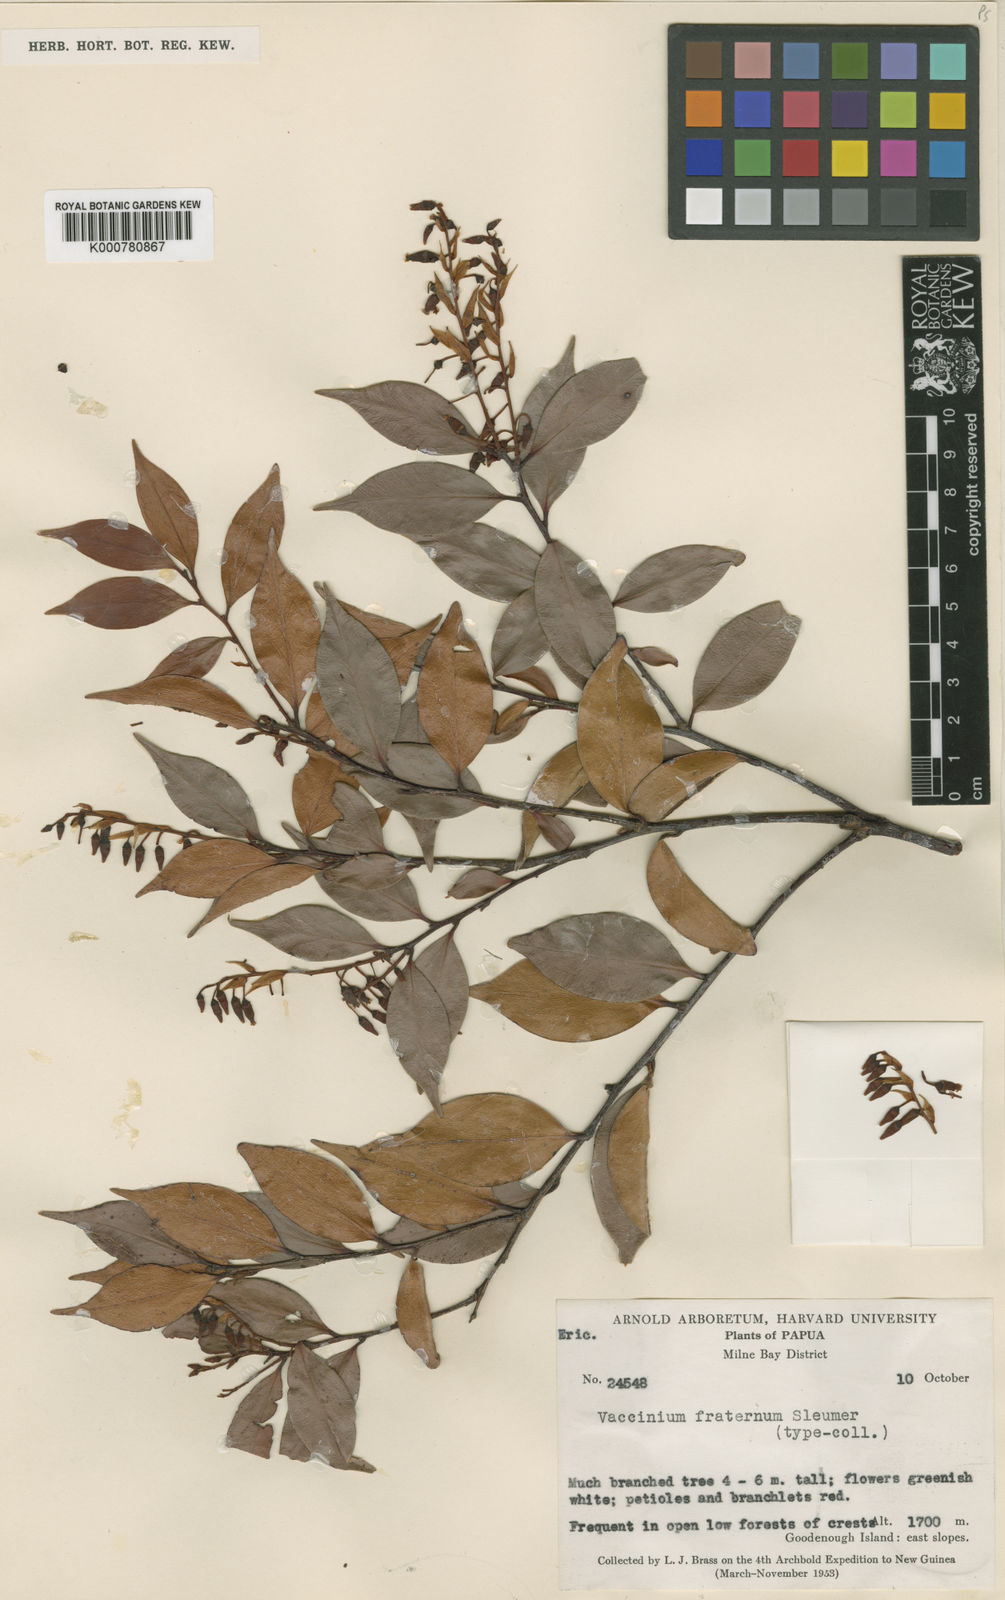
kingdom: Plantae
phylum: Tracheophyta
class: Magnoliopsida
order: Ericales
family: Ericaceae
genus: Vaccinium
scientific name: Vaccinium fraternum
